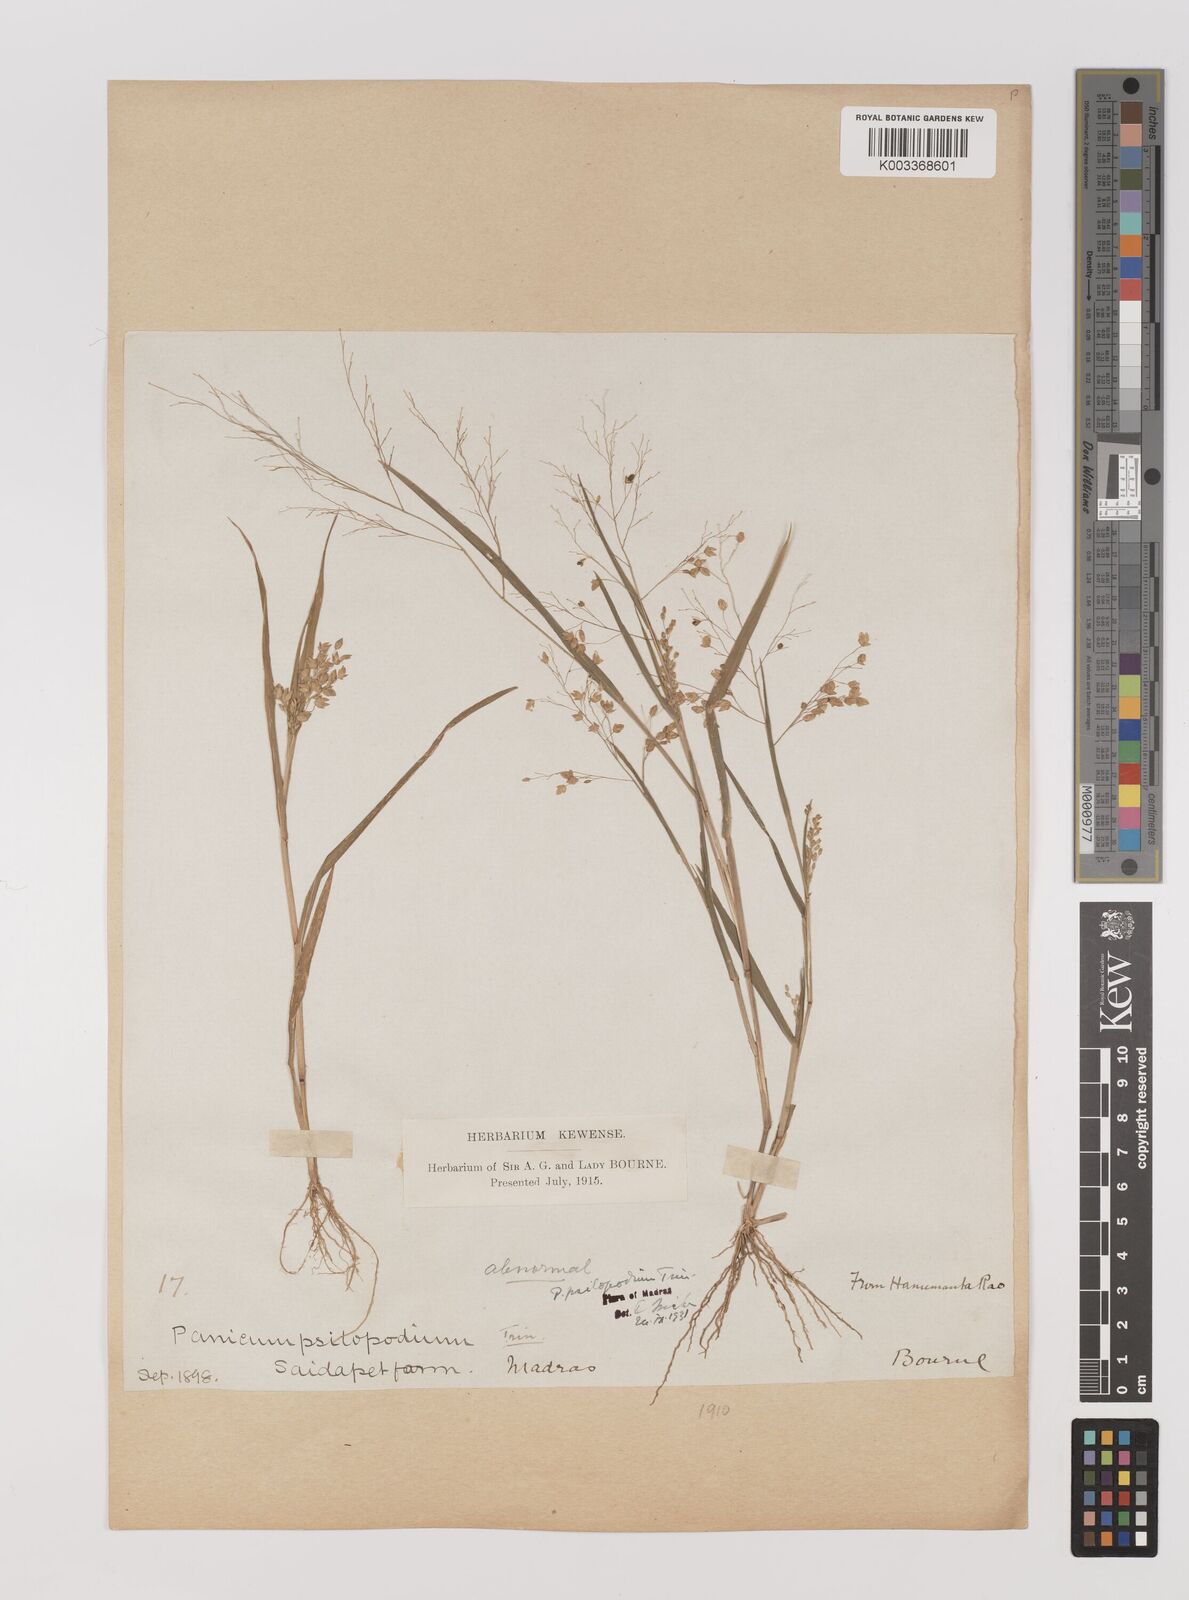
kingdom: Plantae
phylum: Tracheophyta
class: Liliopsida
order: Poales
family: Poaceae
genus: Panicum
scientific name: Panicum sumatrense
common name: Little millet
